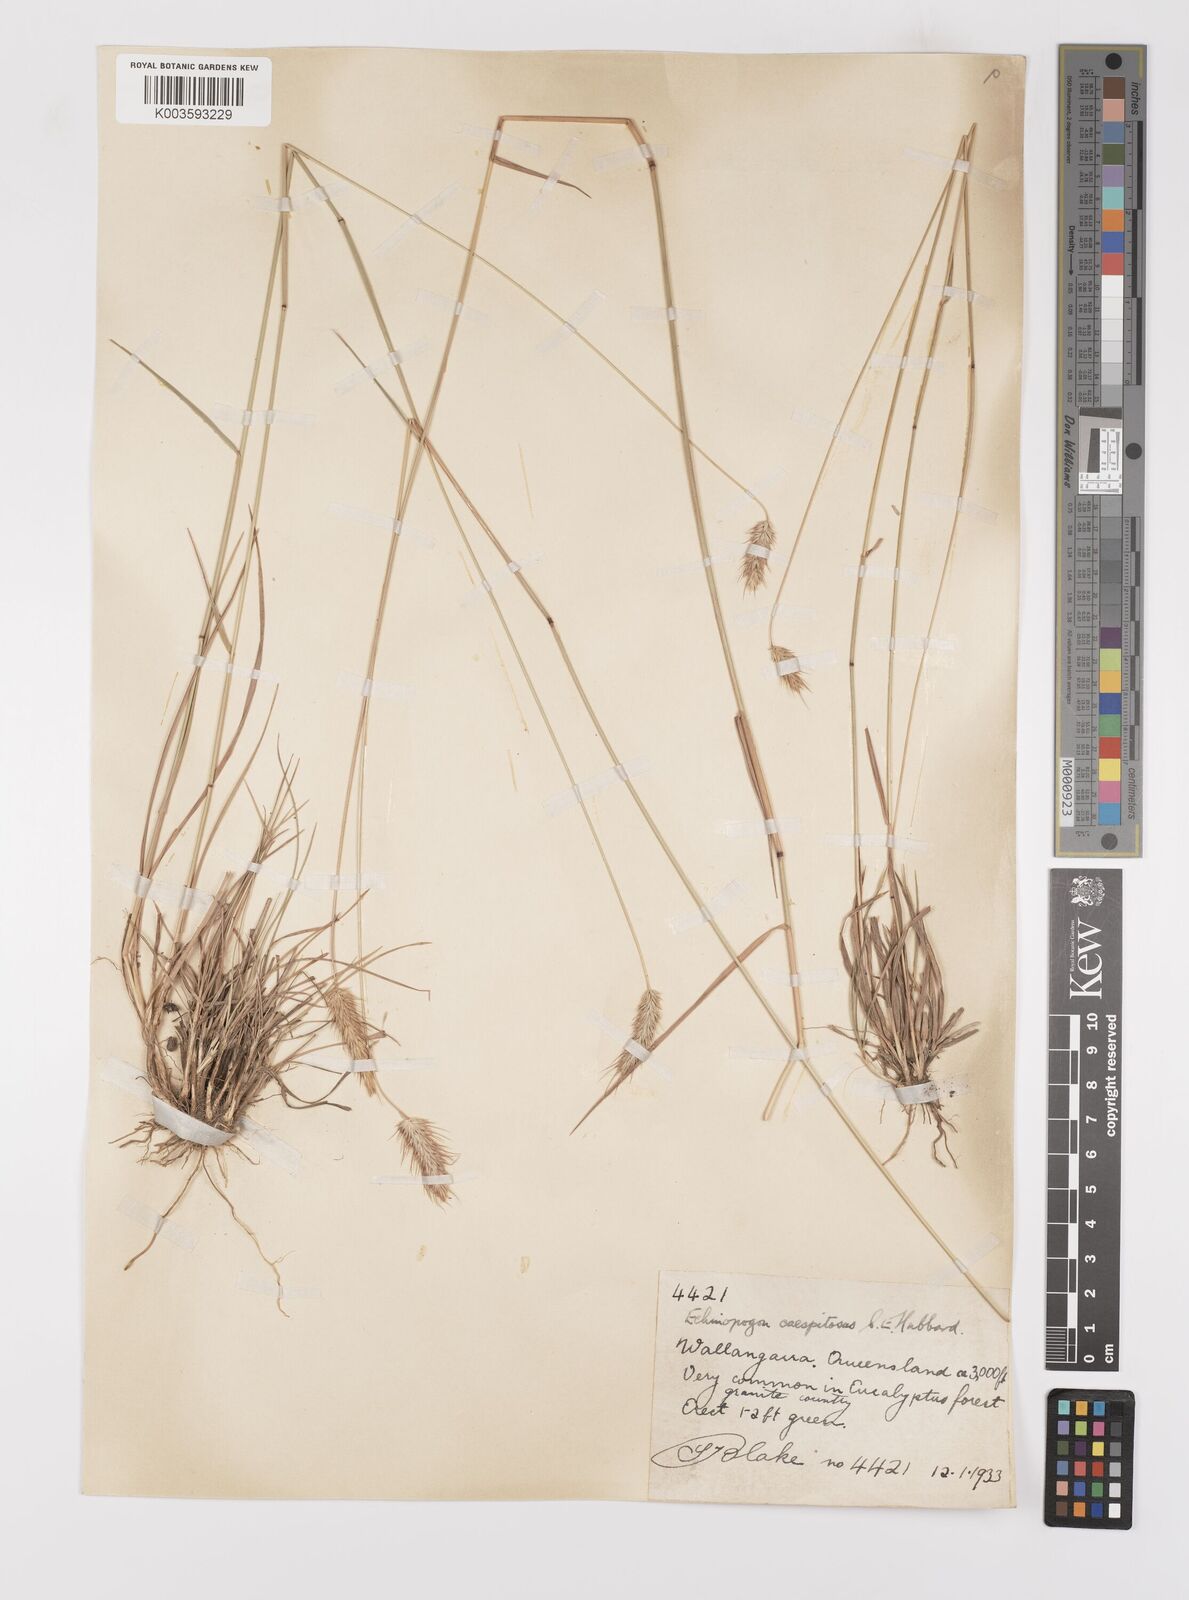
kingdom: Plantae
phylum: Tracheophyta
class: Liliopsida
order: Poales
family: Poaceae
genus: Echinopogon
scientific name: Echinopogon caespitosus
